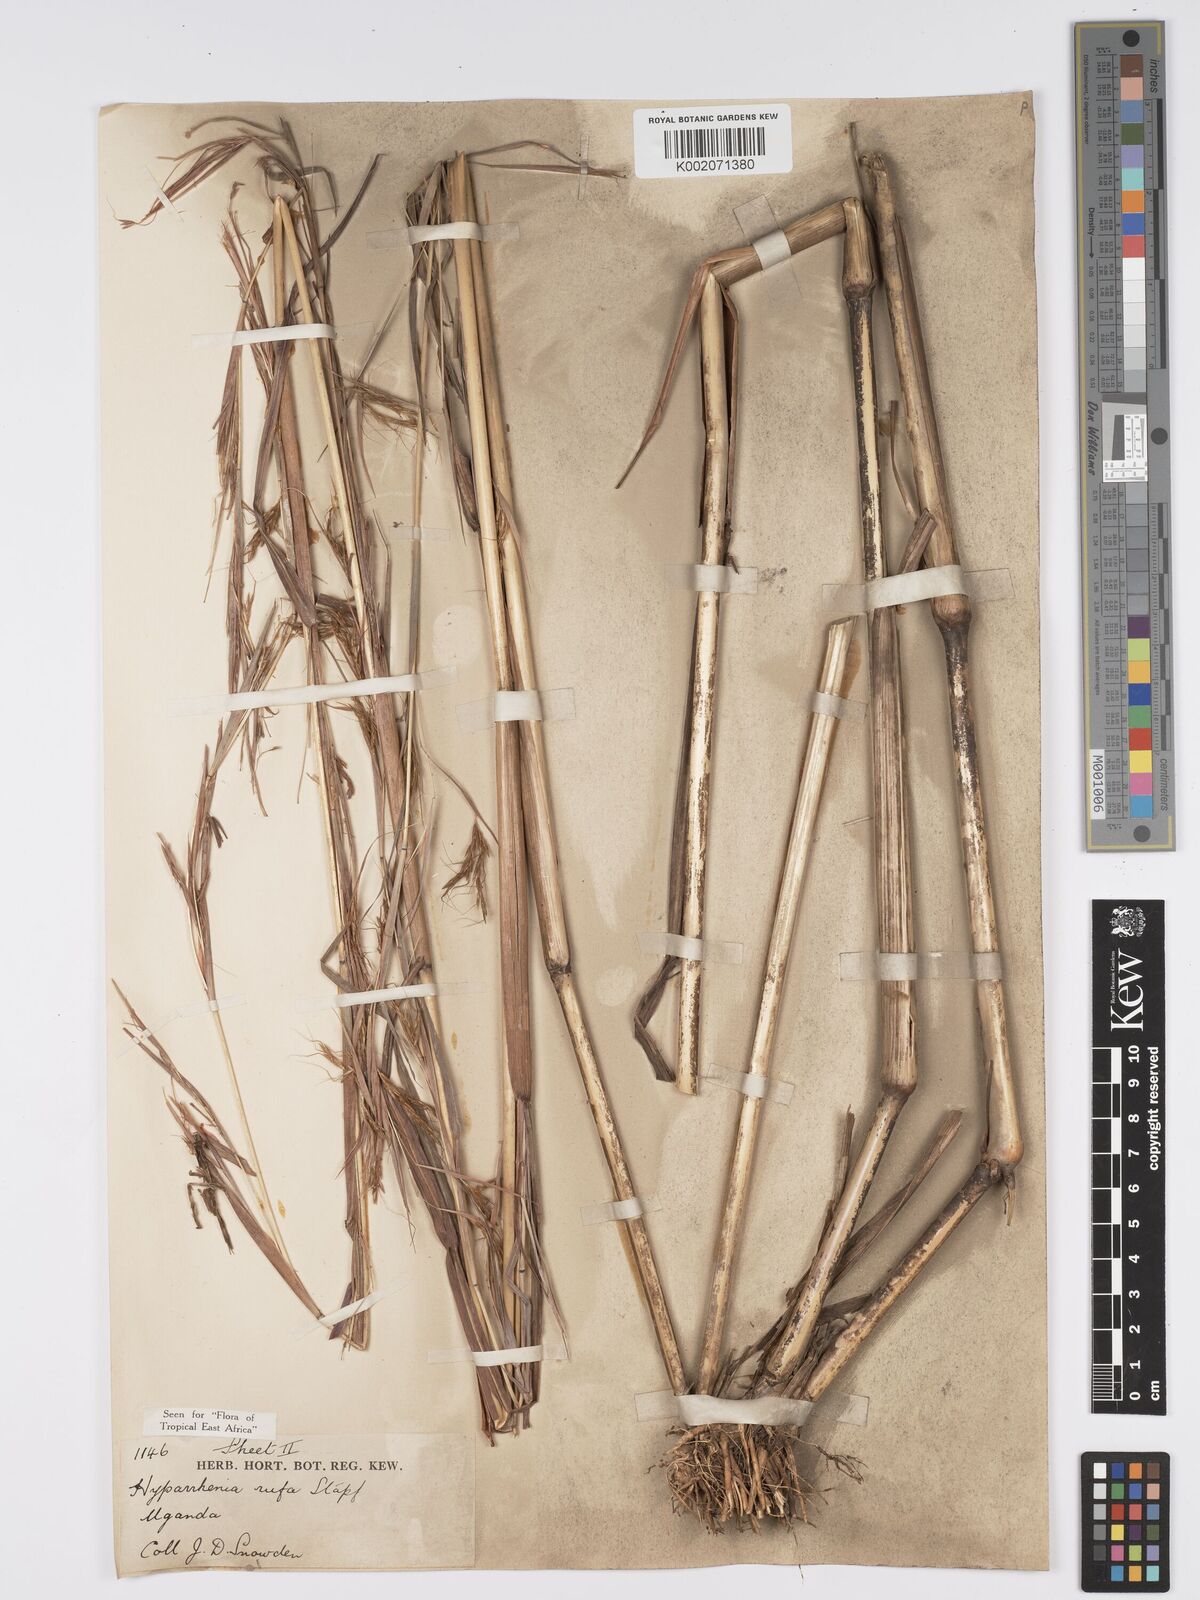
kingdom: Plantae
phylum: Tracheophyta
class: Liliopsida
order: Poales
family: Poaceae
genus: Hyparrhenia
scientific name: Hyparrhenia rufa
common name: Jaraguagrass
